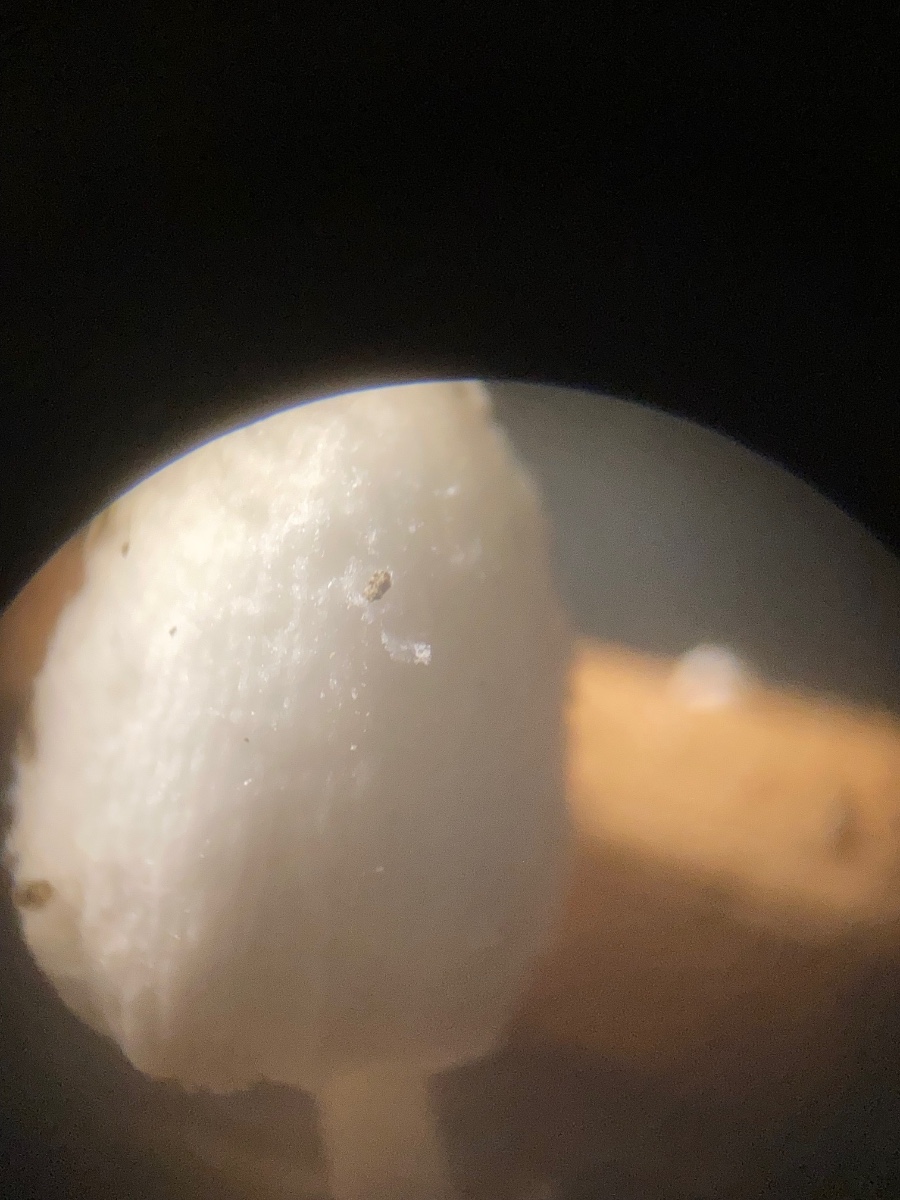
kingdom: Fungi
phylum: Basidiomycota
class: Agaricomycetes
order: Agaricales
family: Psathyrellaceae
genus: Coprinopsis
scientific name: Coprinopsis urticicola
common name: urte-blækhat
